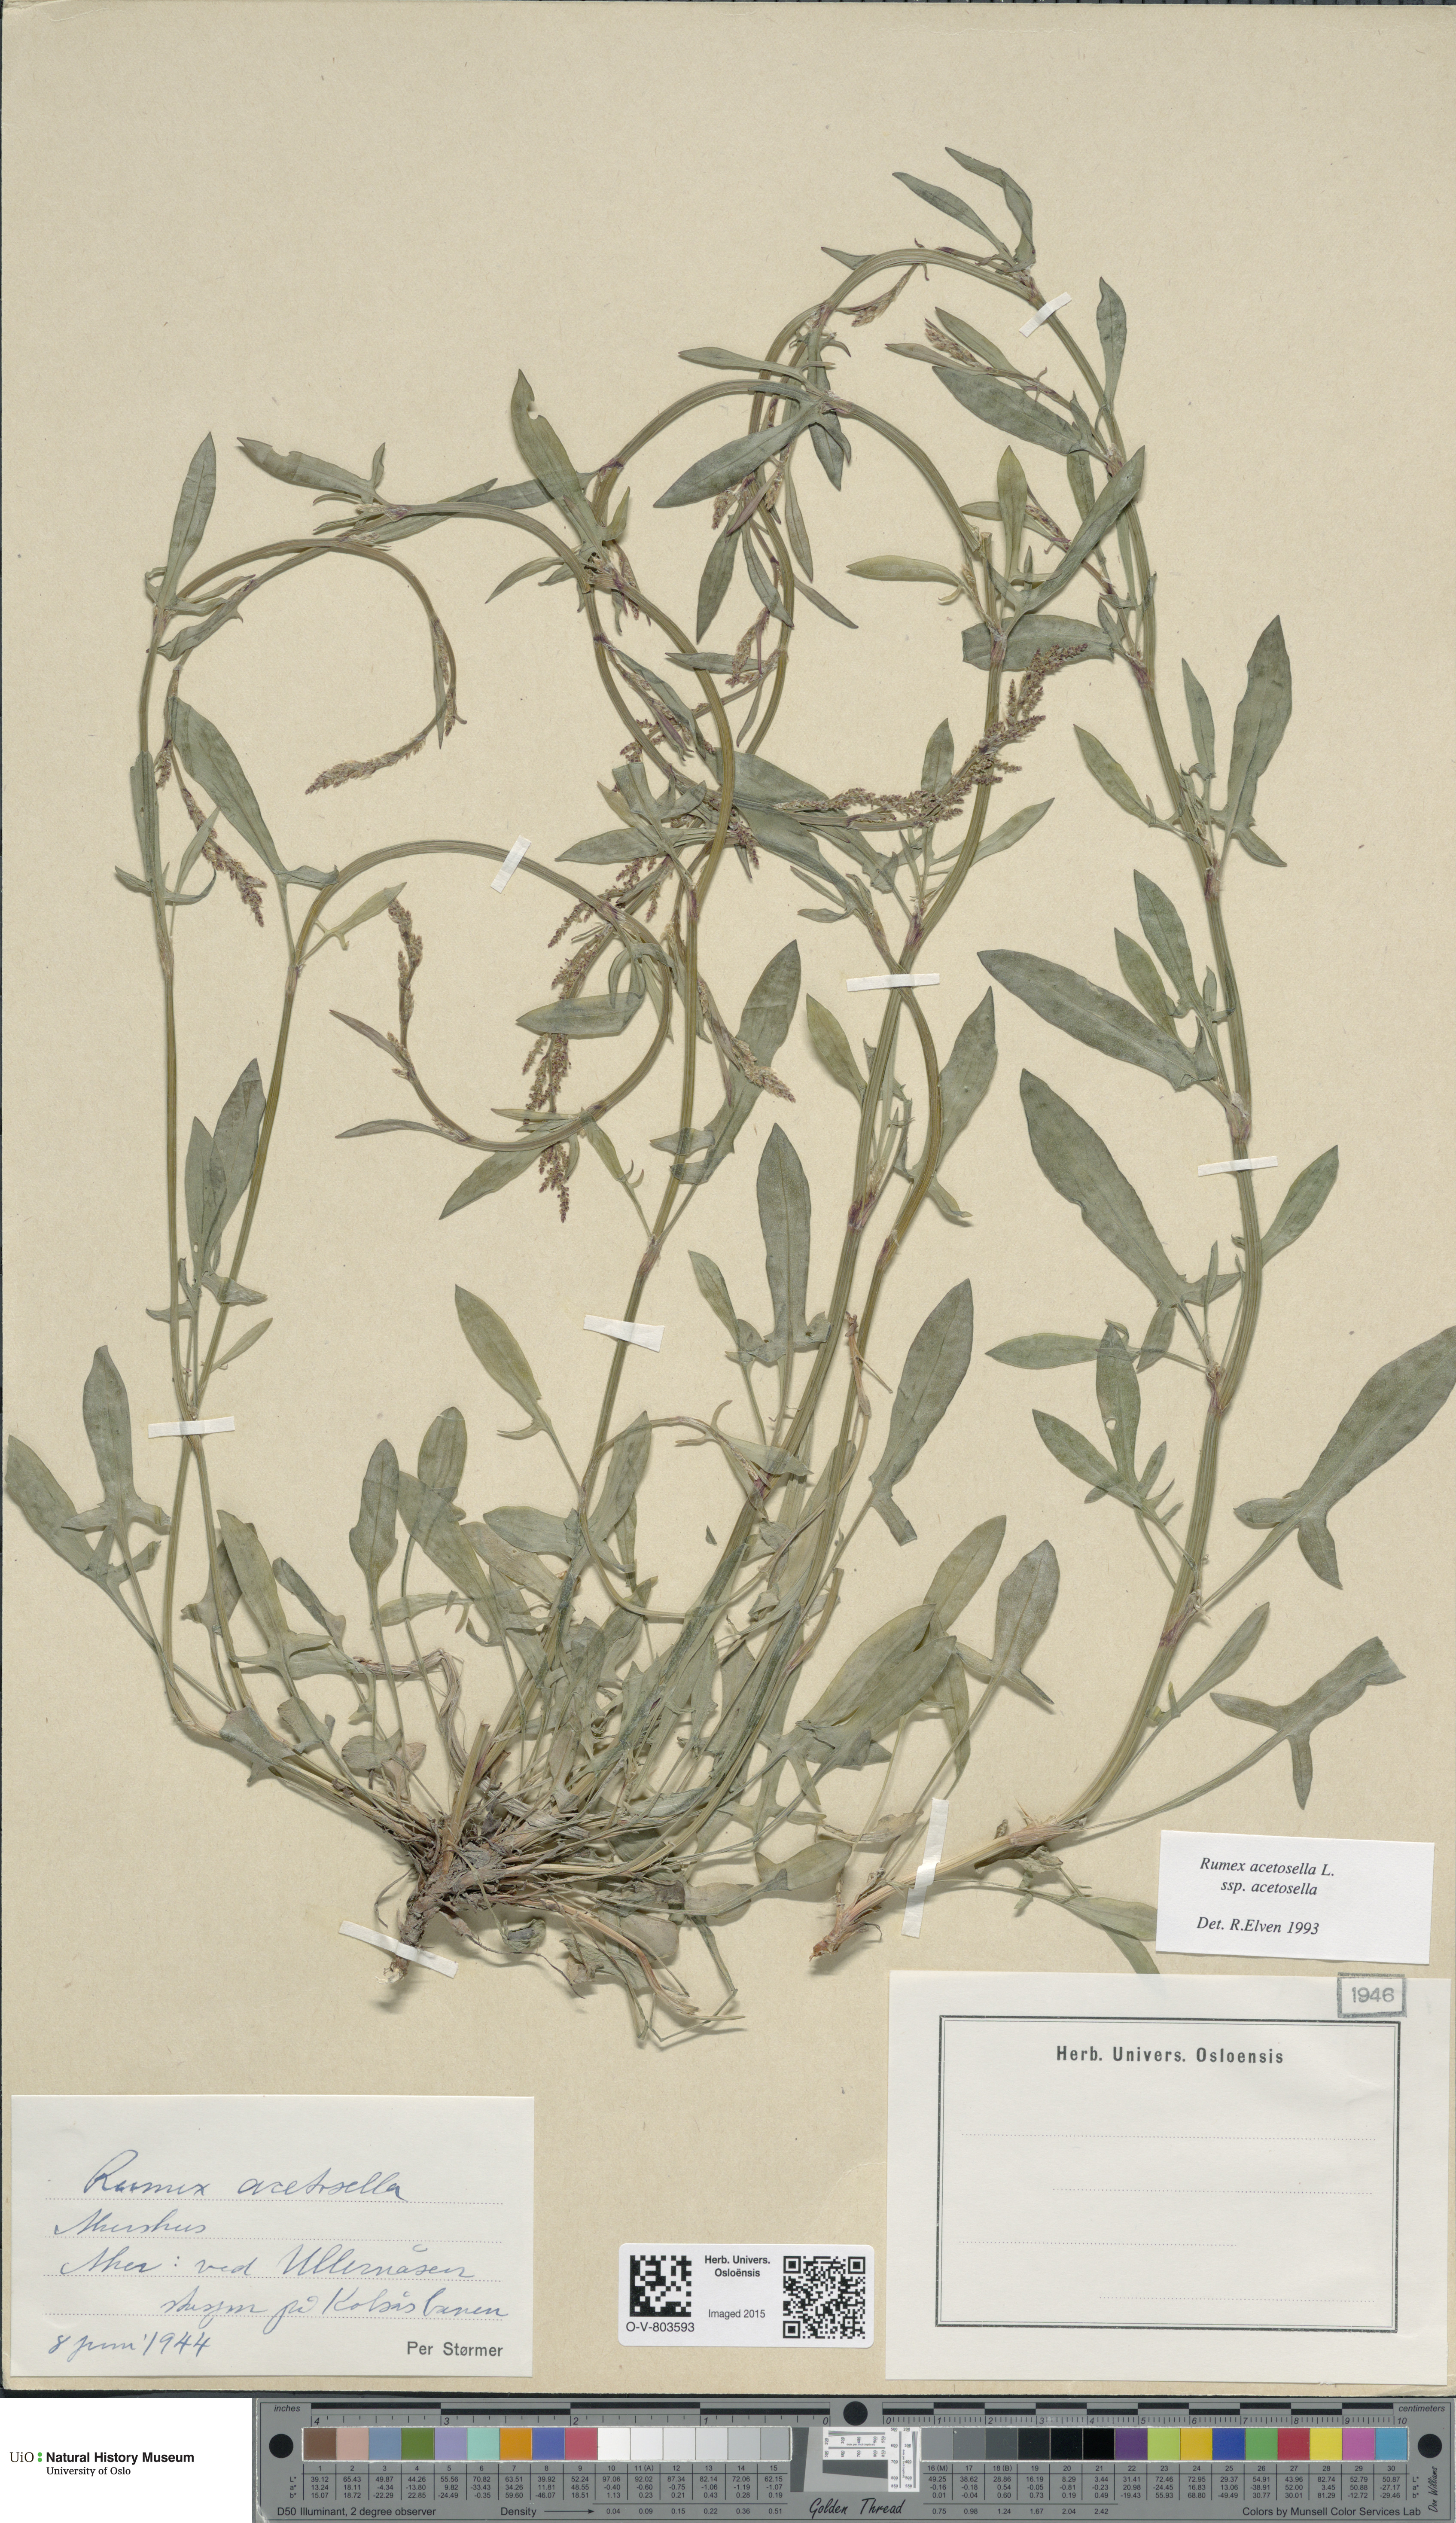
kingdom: Plantae
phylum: Tracheophyta
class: Magnoliopsida
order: Caryophyllales
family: Polygonaceae
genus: Rumex
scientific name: Rumex acetosella
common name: Common sheep sorrel
